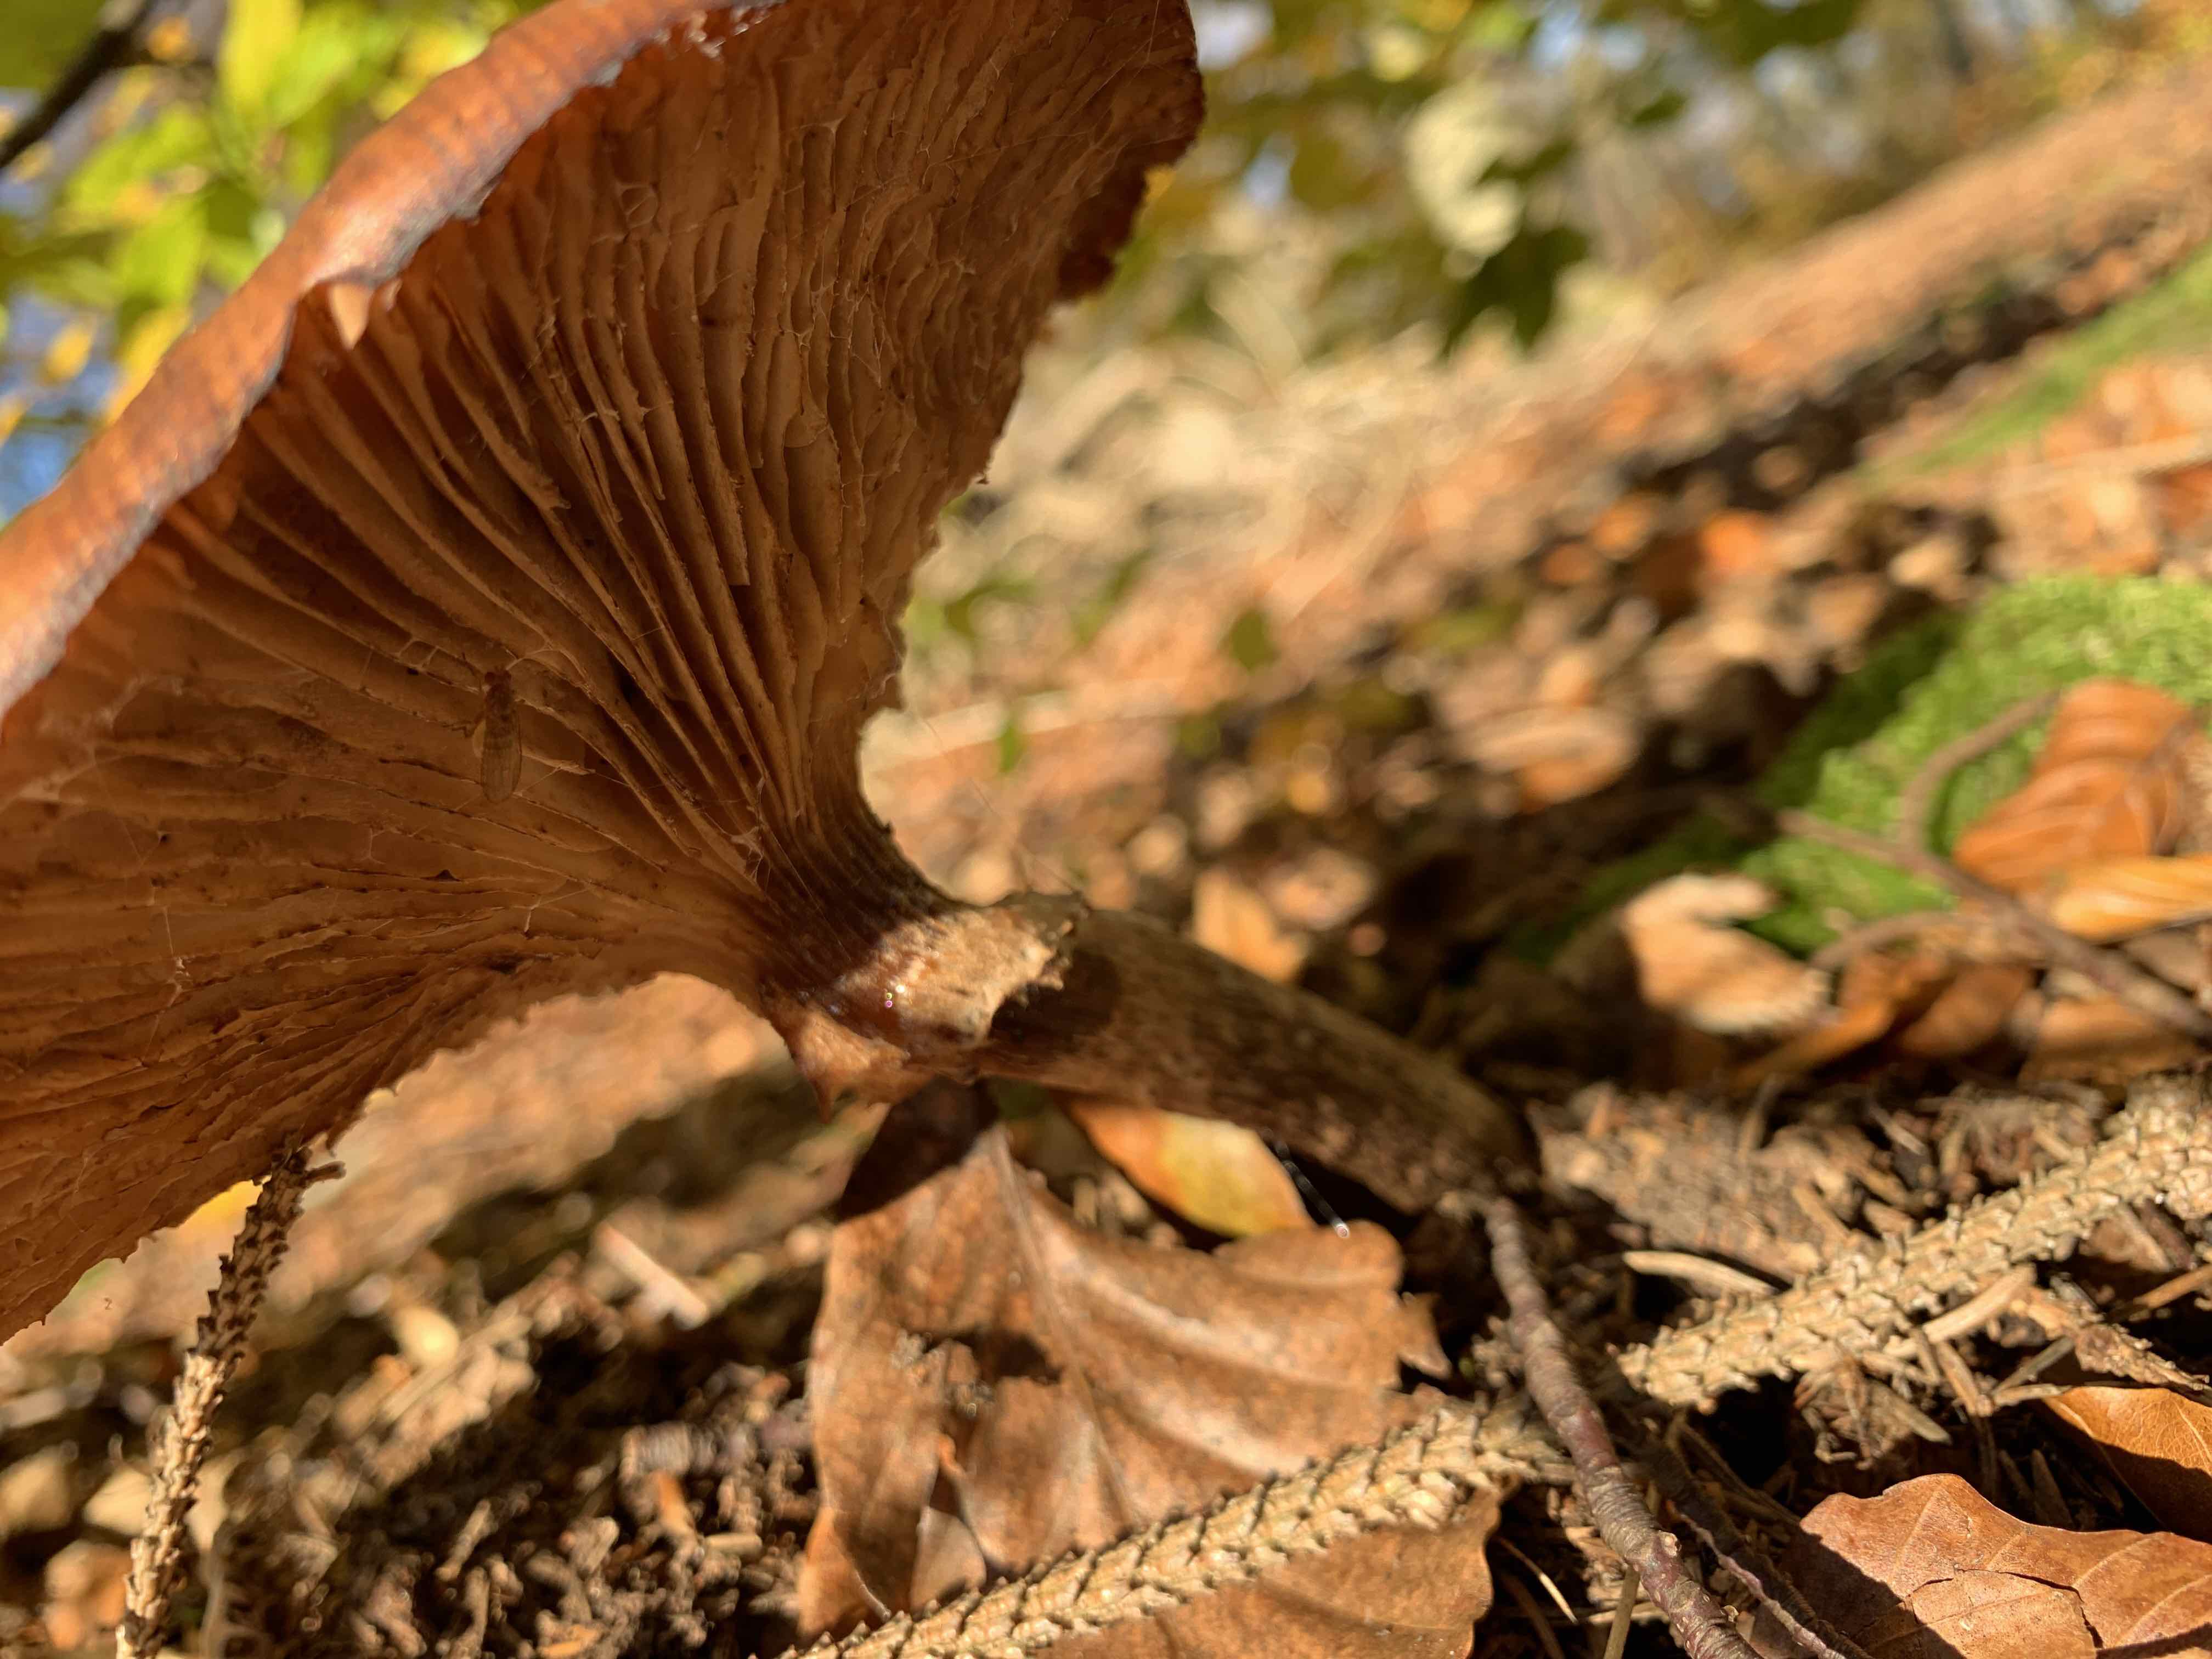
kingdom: Fungi
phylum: Basidiomycota
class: Agaricomycetes
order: Agaricales
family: Physalacriaceae
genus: Armillaria
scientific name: Armillaria
